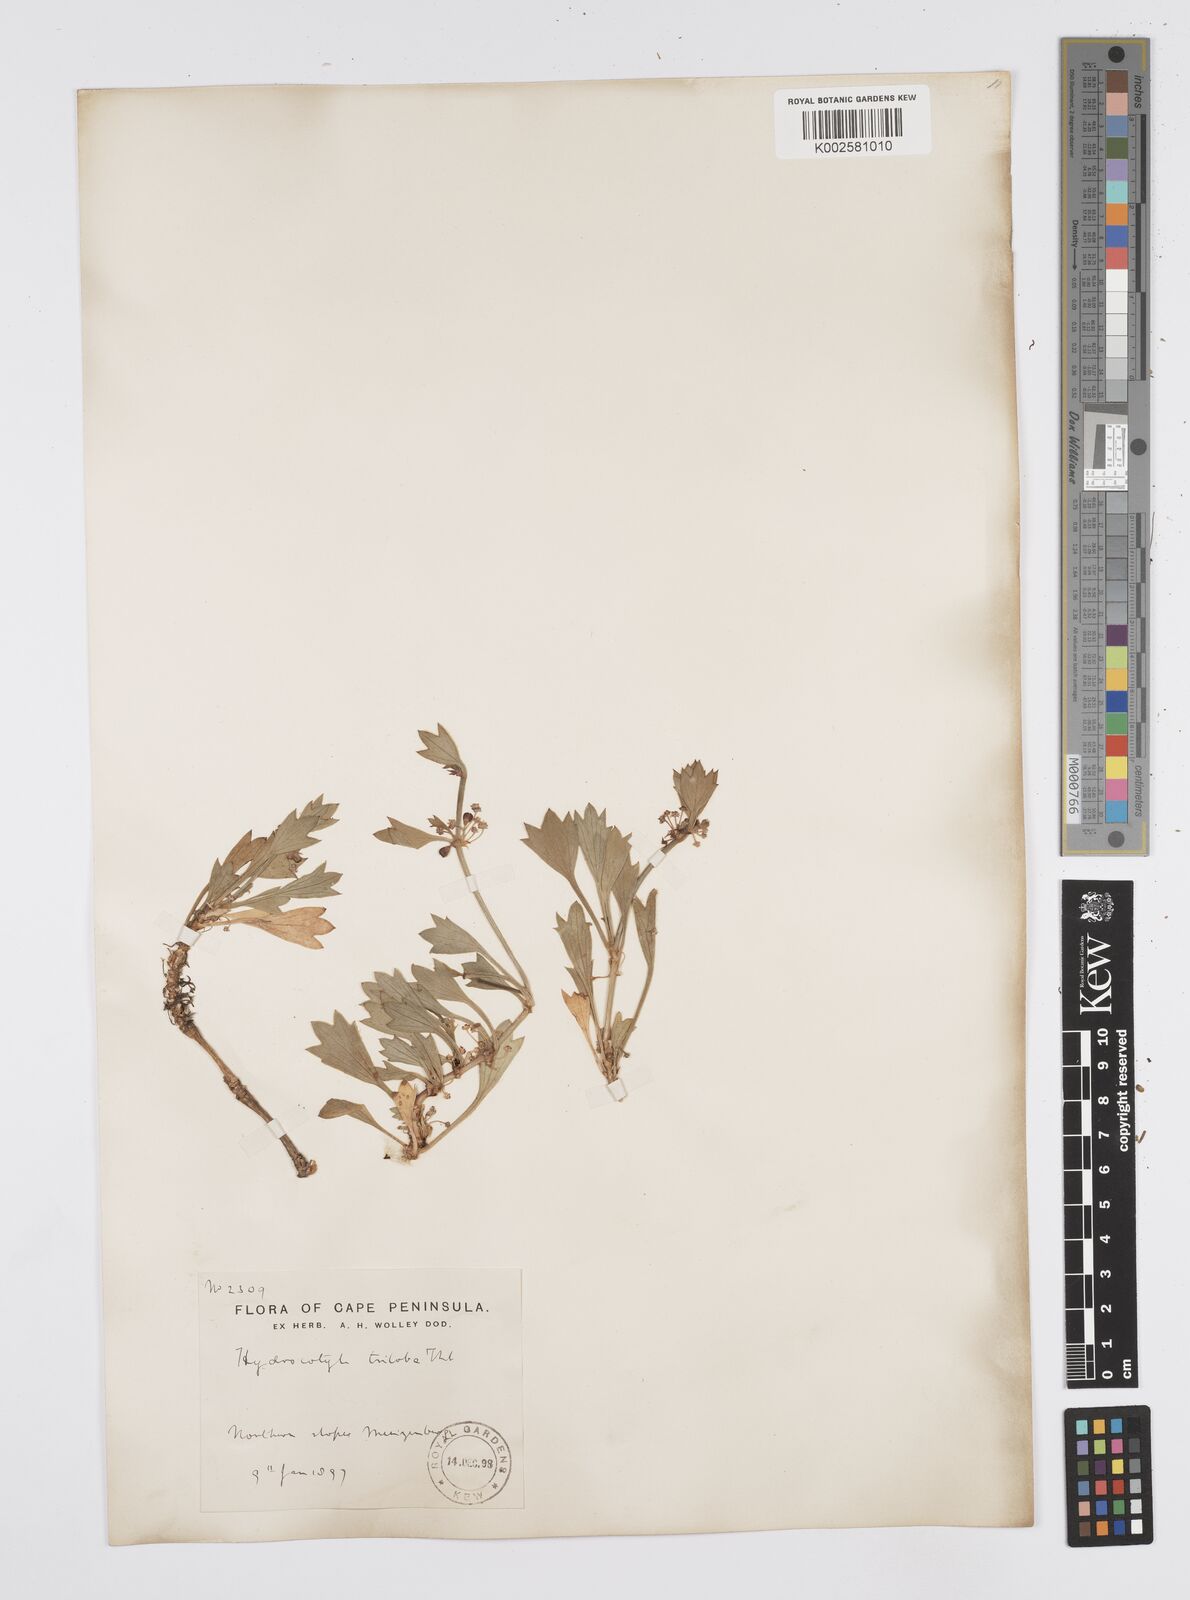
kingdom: Plantae
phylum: Tracheophyta
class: Magnoliopsida
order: Apiales
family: Apiaceae
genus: Centella
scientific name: Centella triloba
